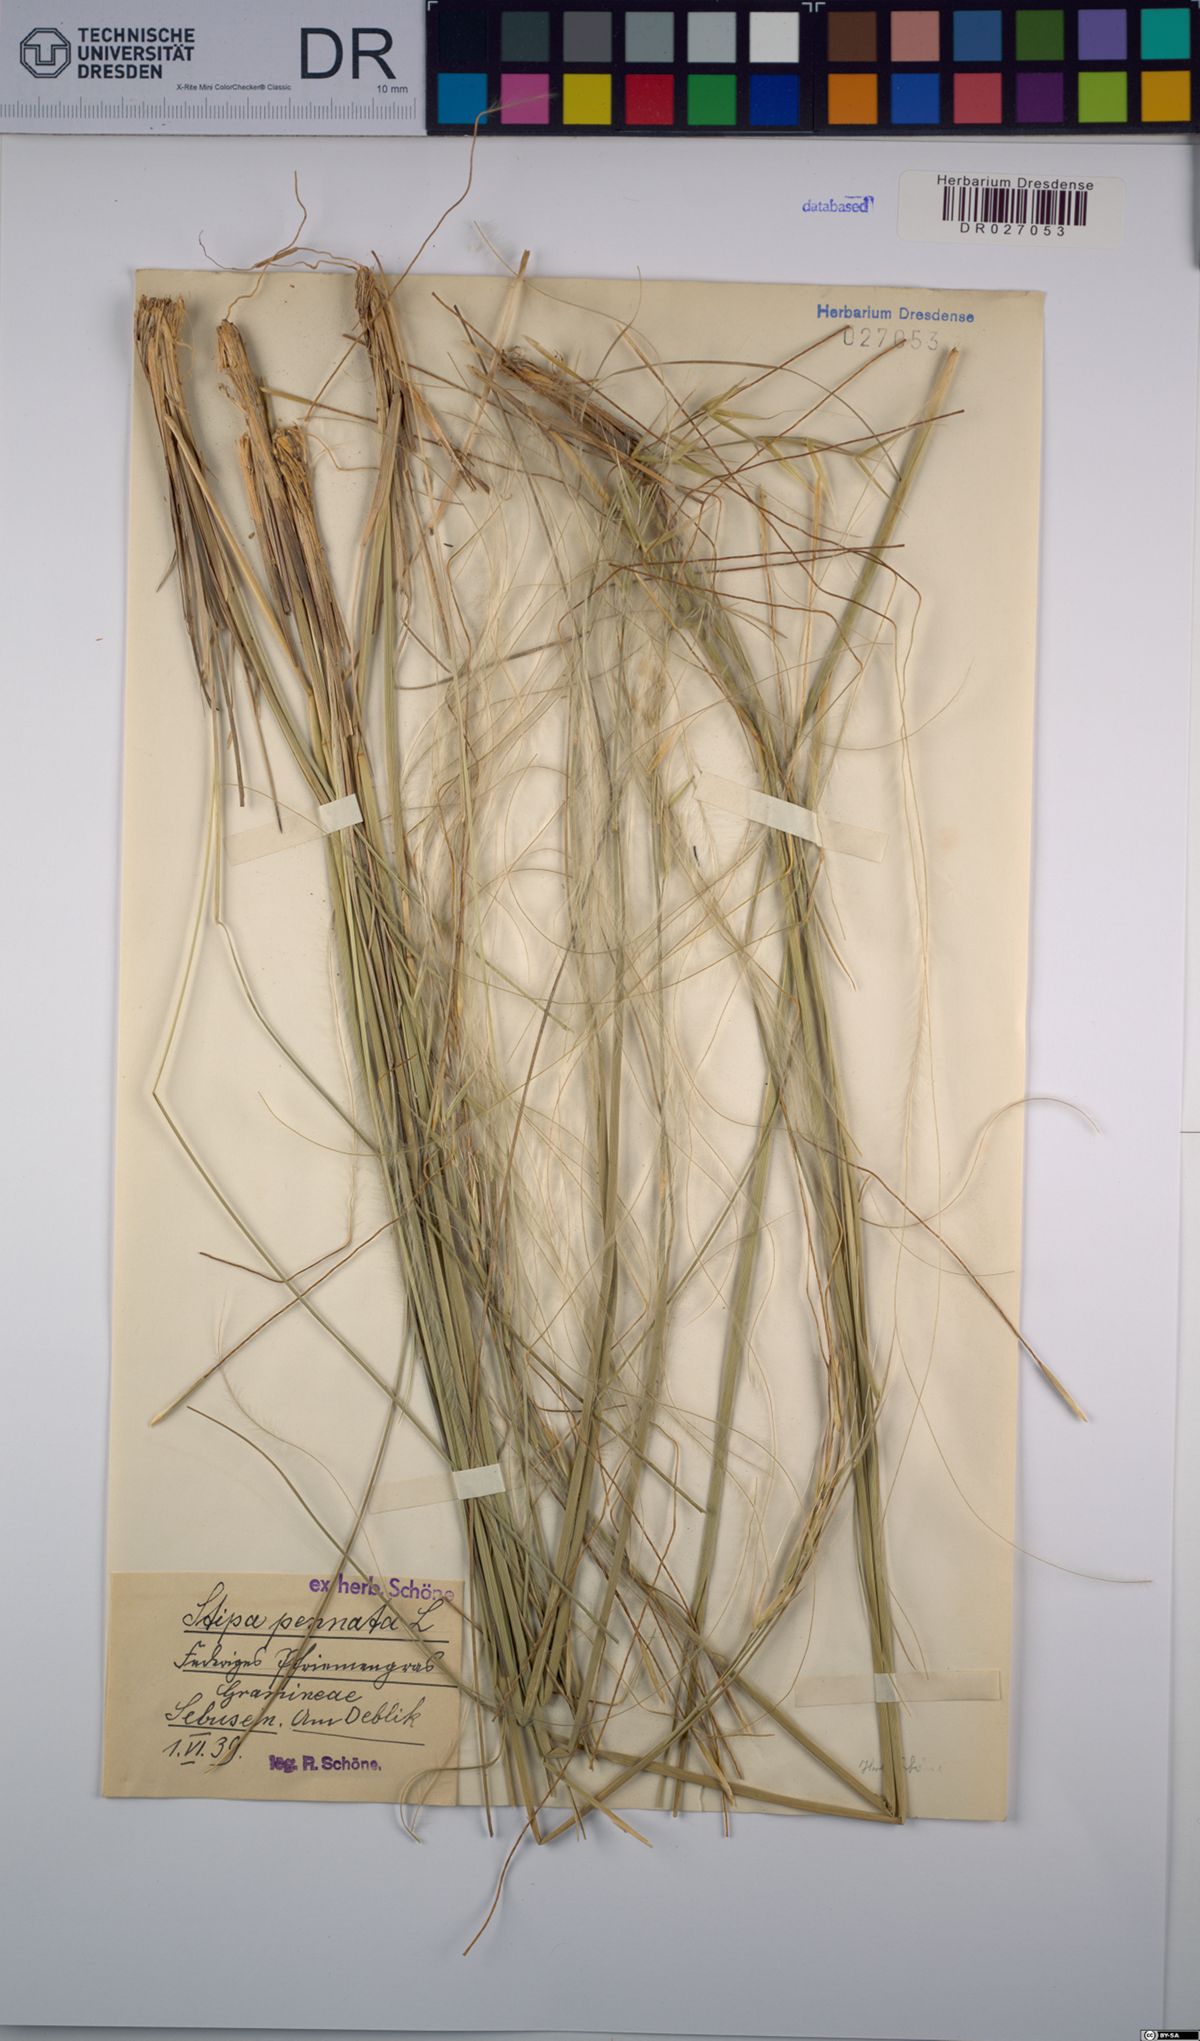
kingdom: Plantae
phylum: Tracheophyta
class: Liliopsida
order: Poales
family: Poaceae
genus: Stipa
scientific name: Stipa pennata
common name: European feather grass
